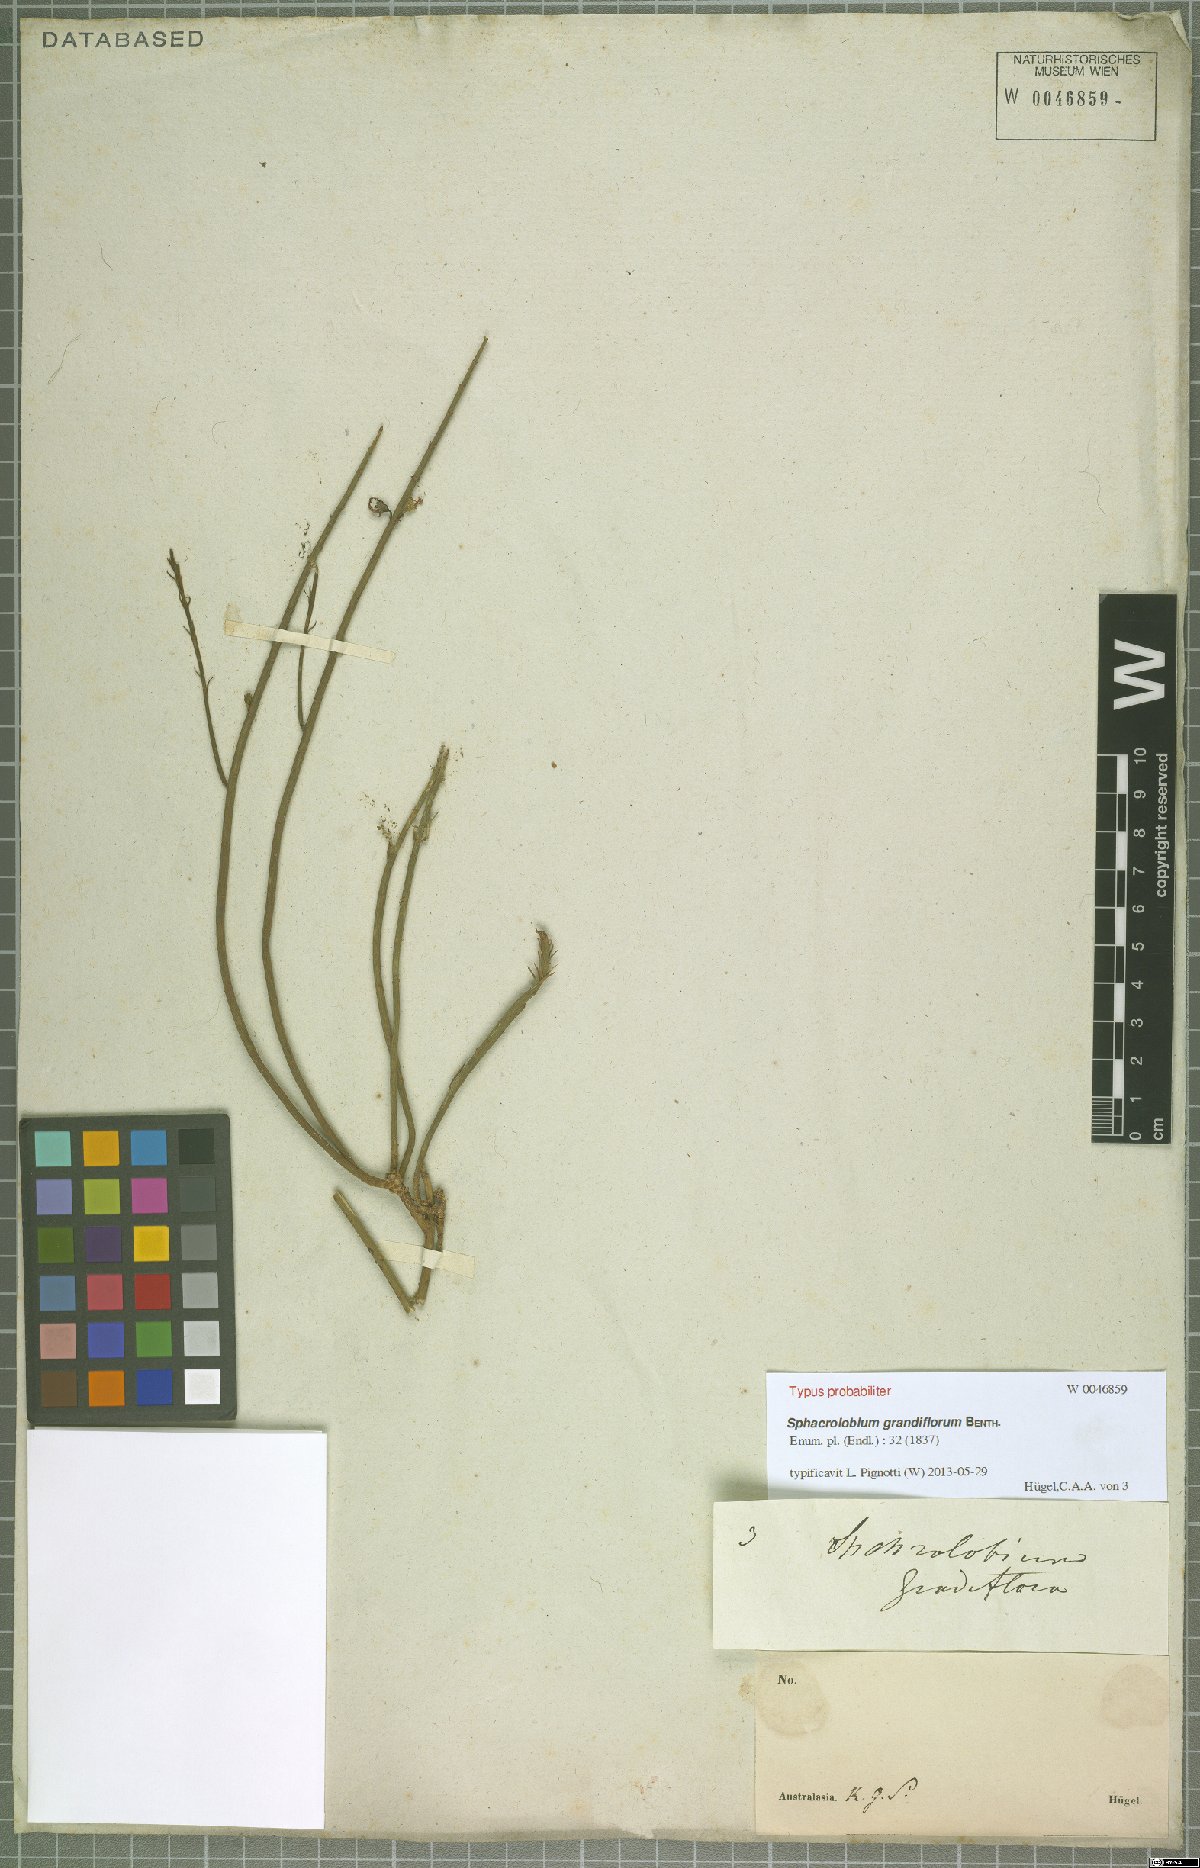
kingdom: Plantae
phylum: Tracheophyta
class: Magnoliopsida
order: Fabales
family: Fabaceae
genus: Sphaerolobium
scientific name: Sphaerolobium grandiflorum
